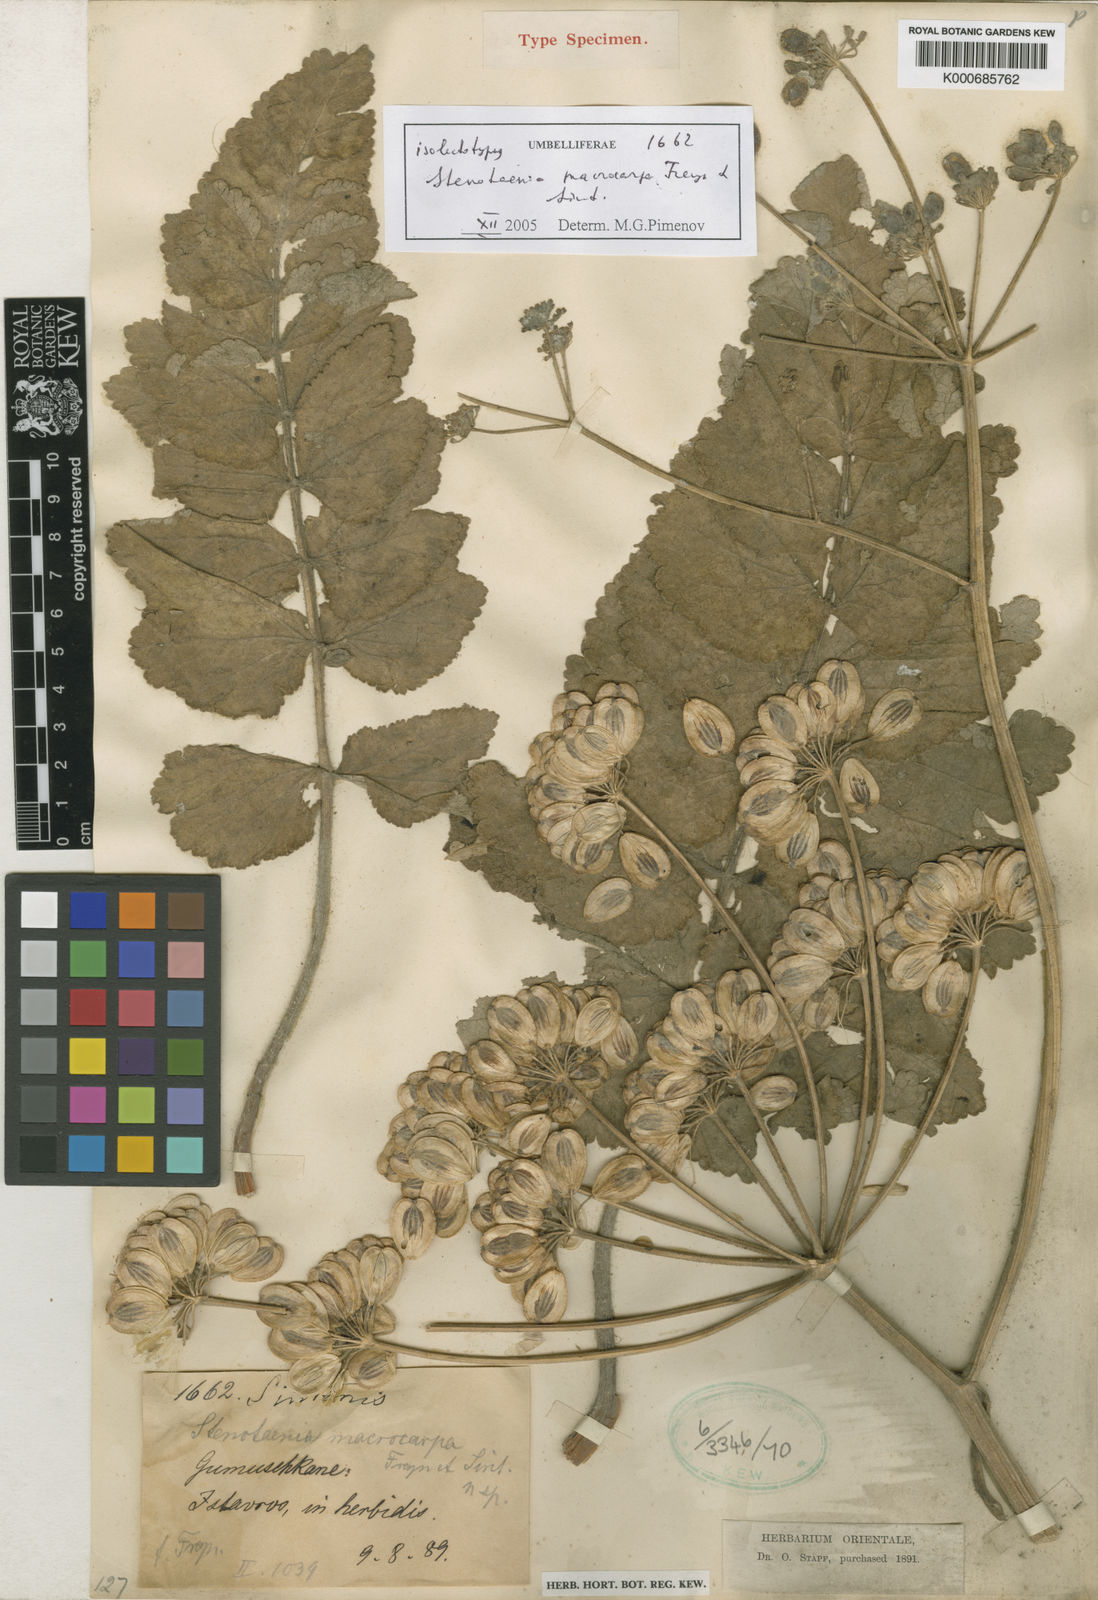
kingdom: Plantae
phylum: Tracheophyta
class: Magnoliopsida
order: Apiales
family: Apiaceae
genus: Stenotaenia
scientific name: Stenotaenia macrocarpa
